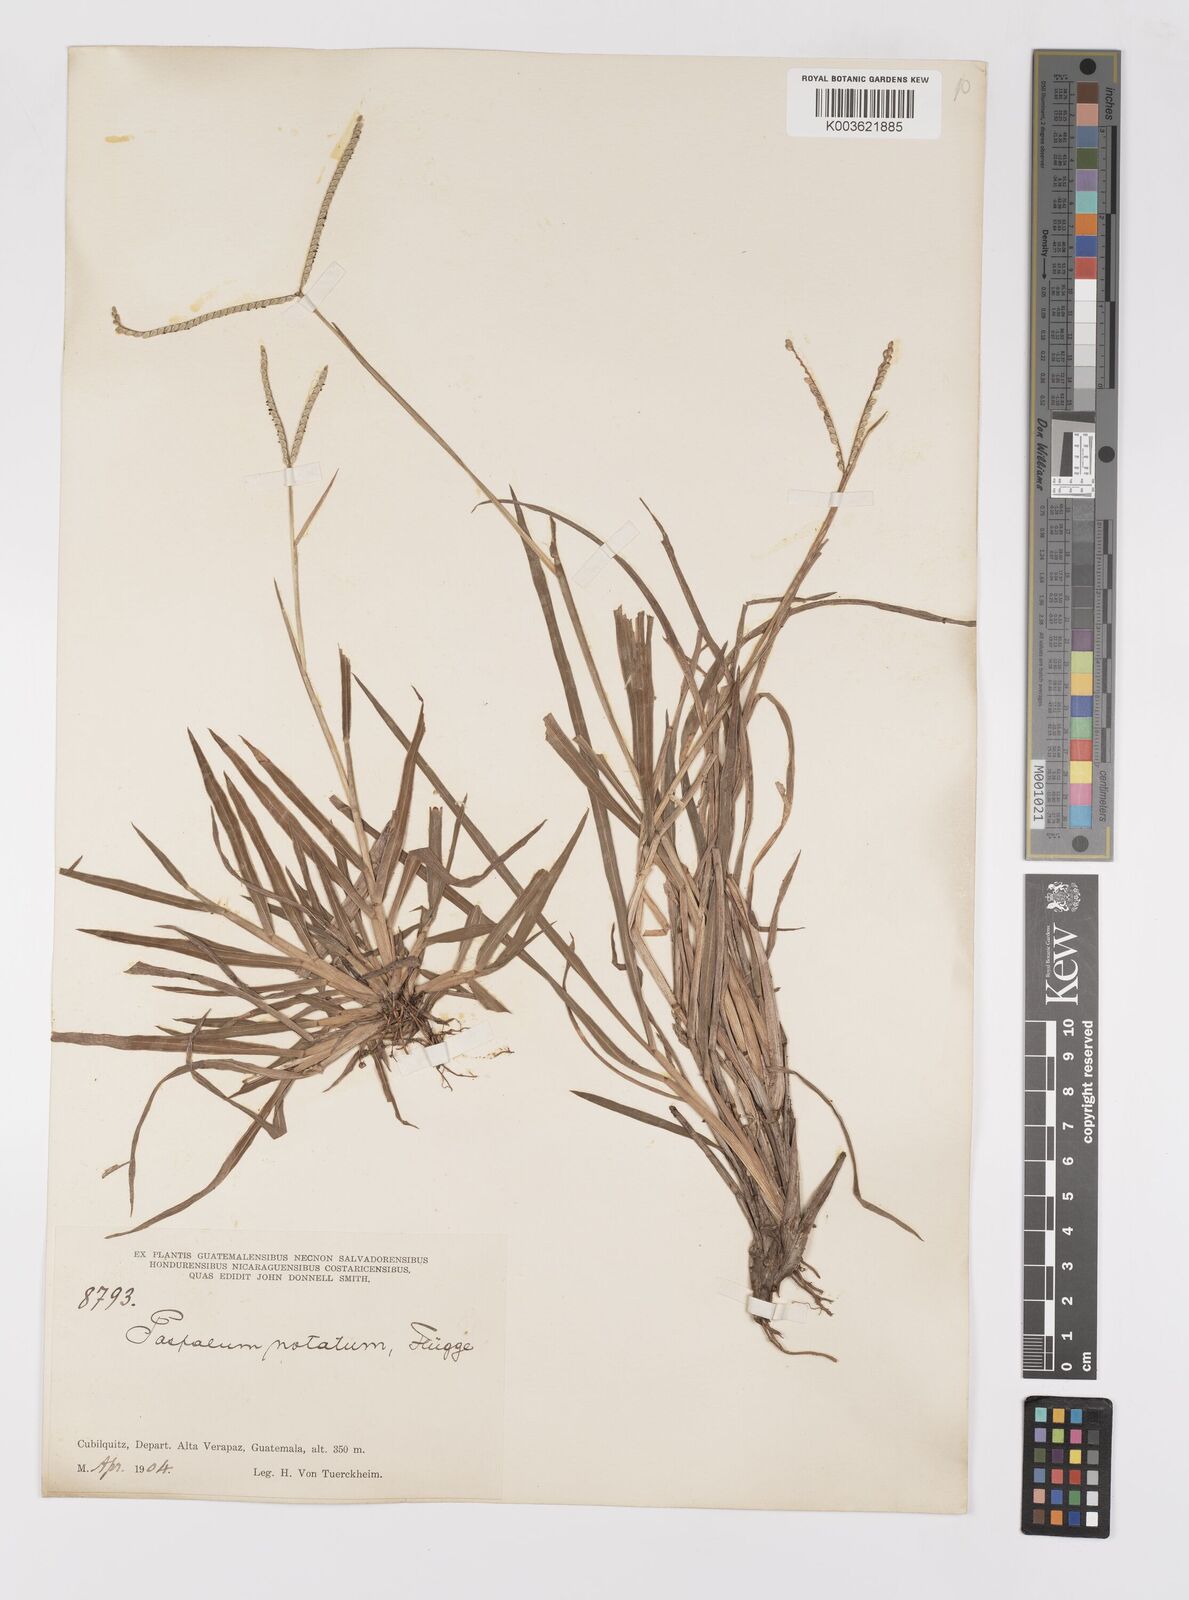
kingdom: Plantae
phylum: Tracheophyta
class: Liliopsida
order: Poales
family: Poaceae
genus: Paspalum
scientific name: Paspalum minus
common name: Matted paspalum
